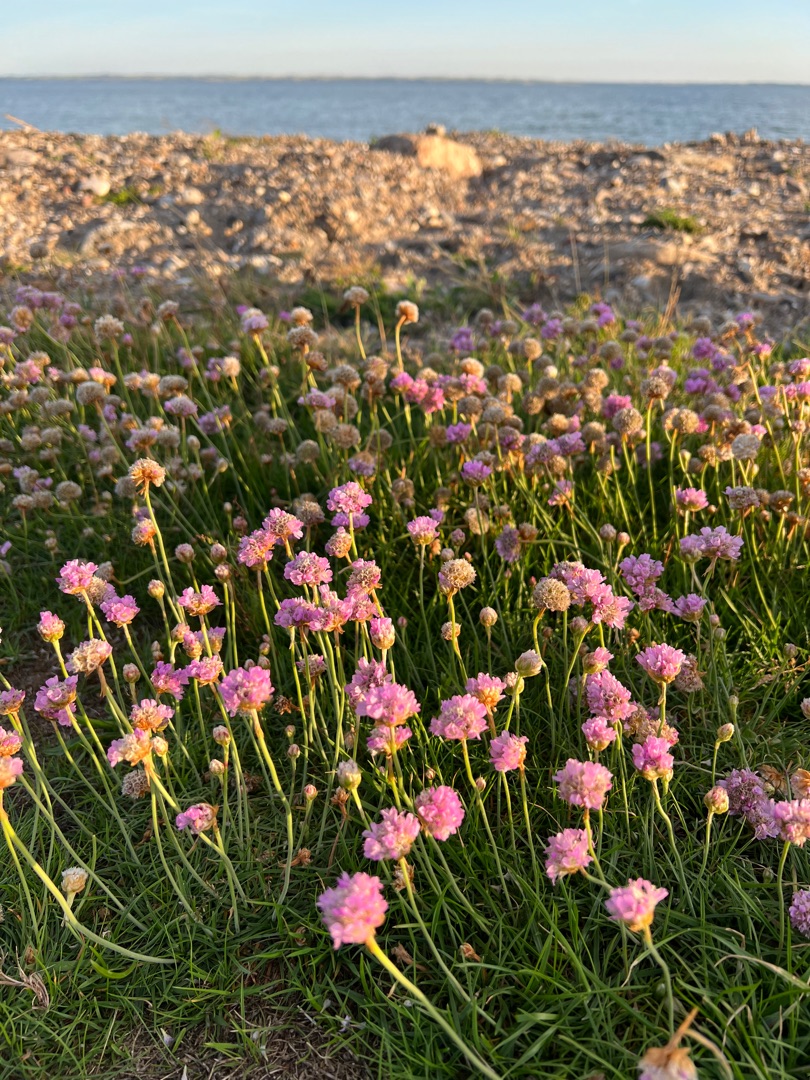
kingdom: Plantae
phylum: Tracheophyta
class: Magnoliopsida
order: Caryophyllales
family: Plumbaginaceae
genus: Armeria
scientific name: Armeria maritima
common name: Engelskgræs
